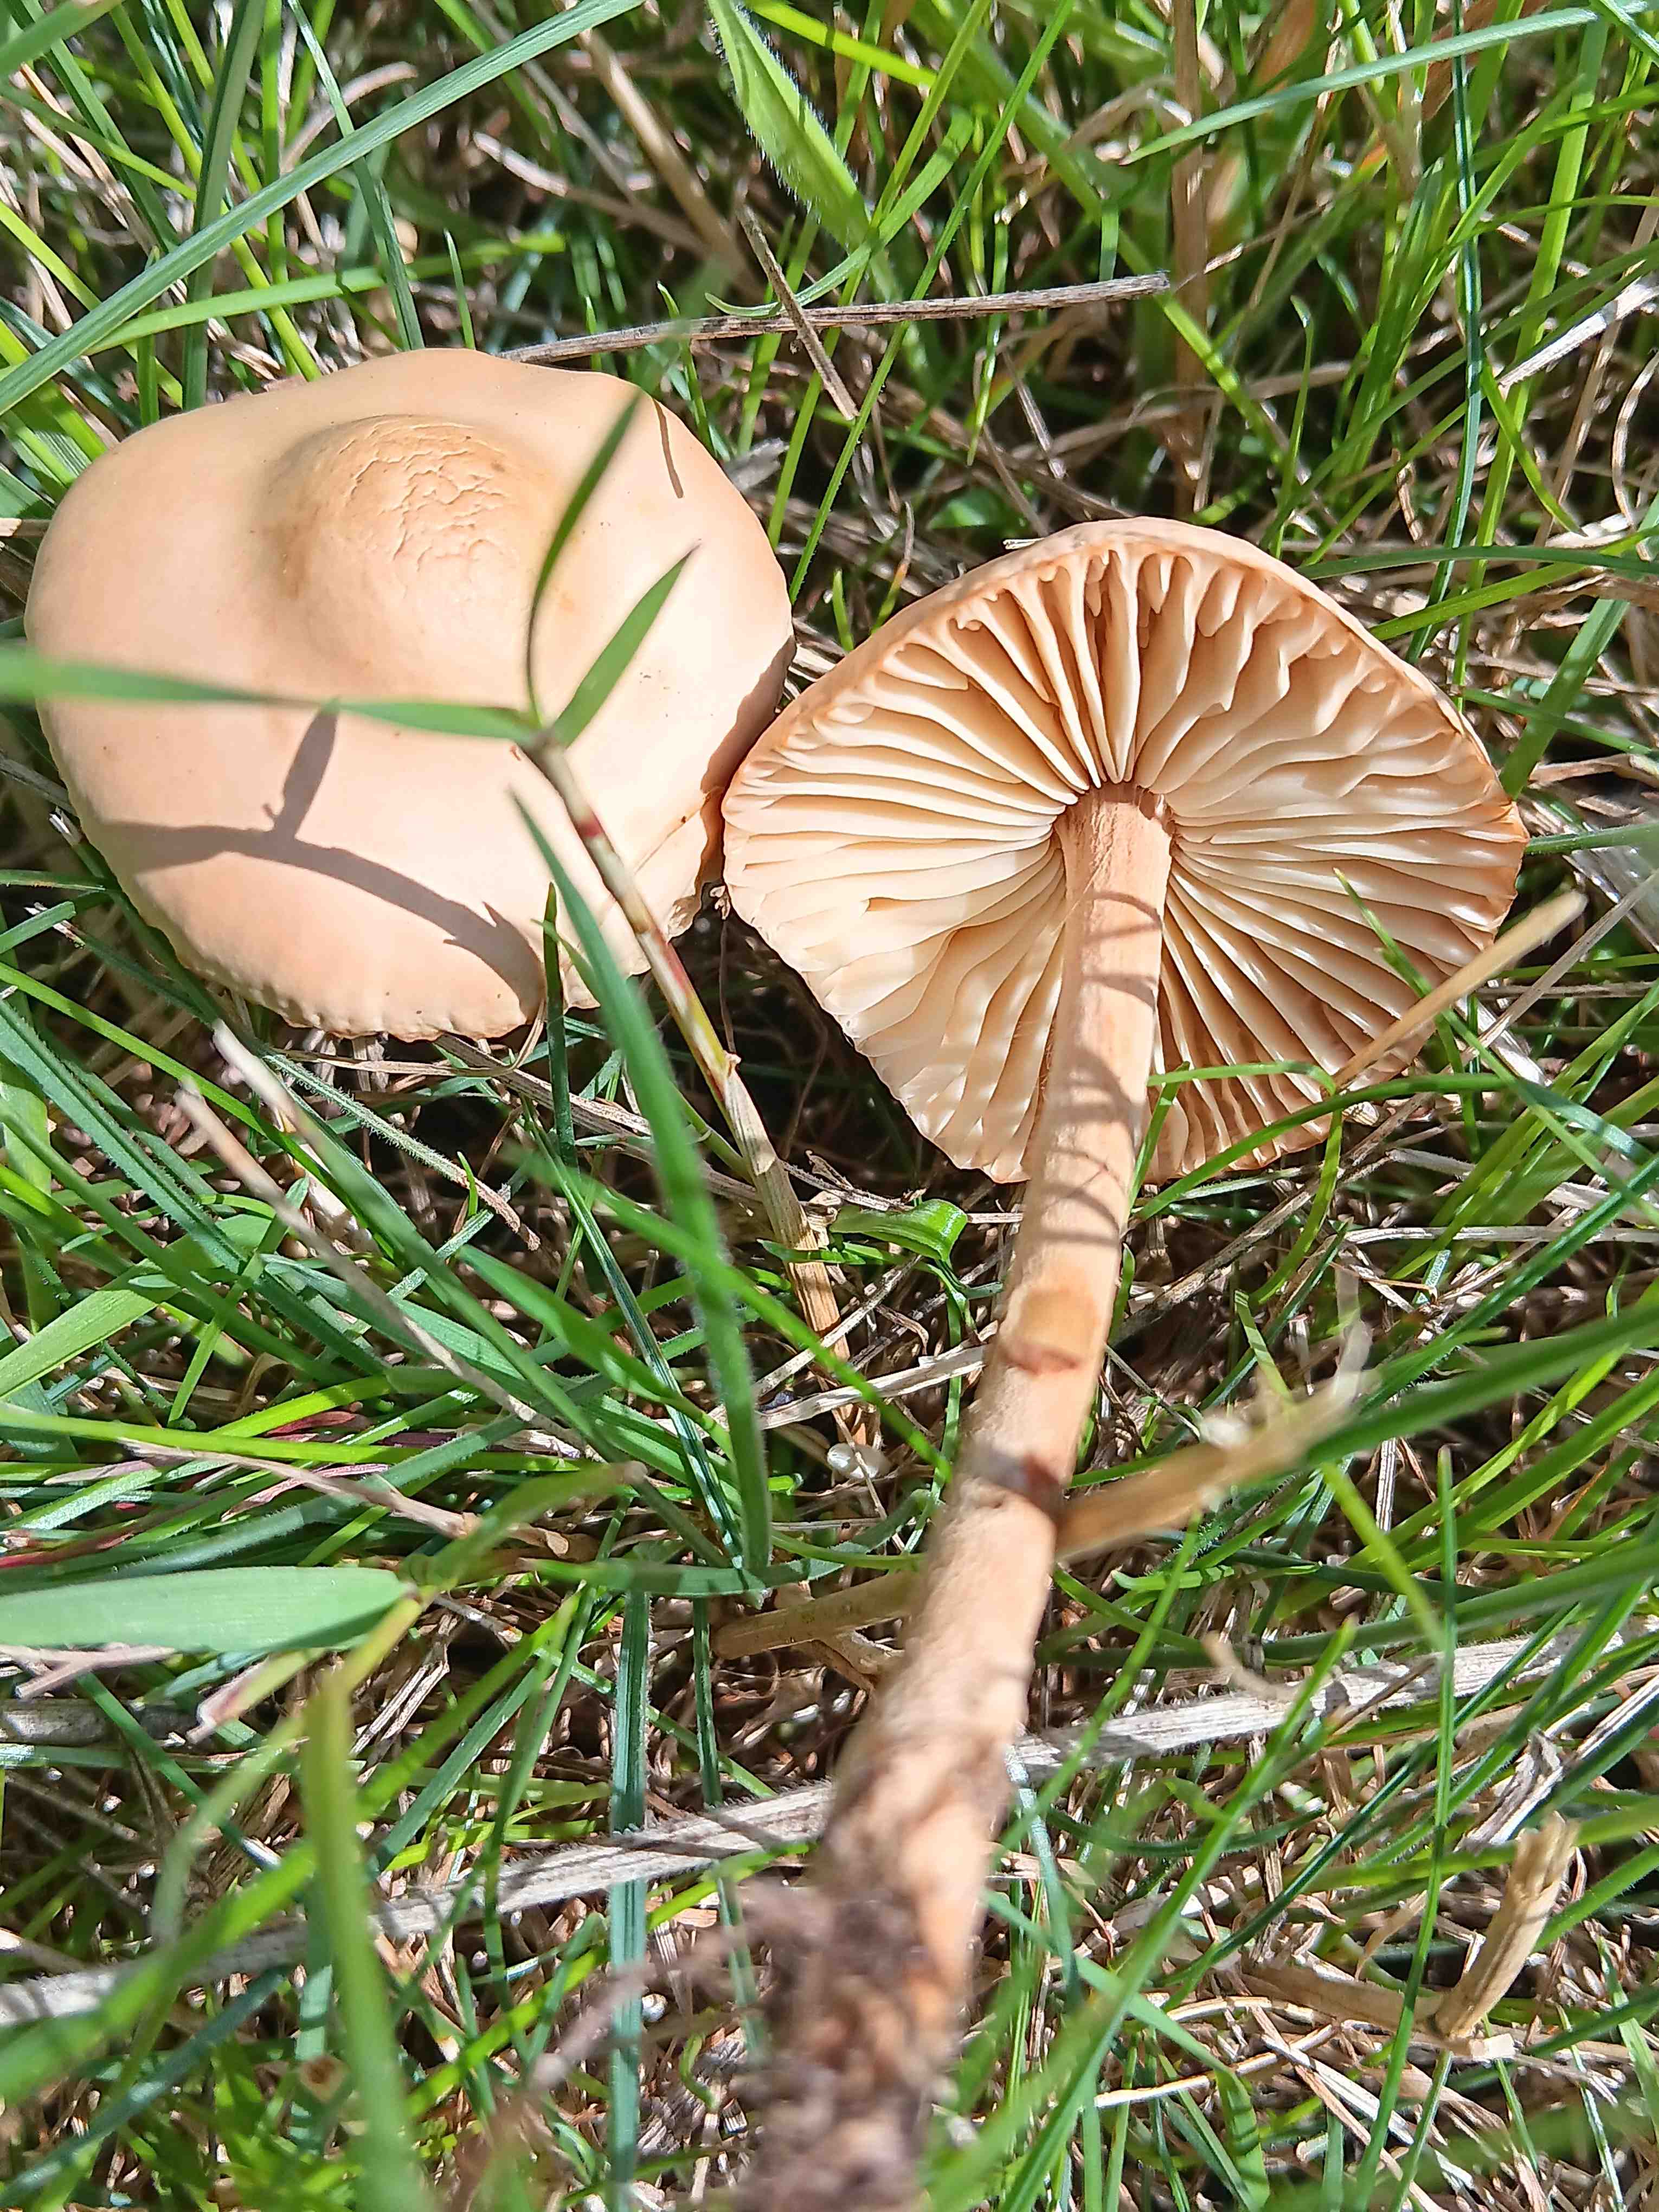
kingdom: Fungi
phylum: Basidiomycota
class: Agaricomycetes
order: Agaricales
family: Marasmiaceae
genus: Marasmius
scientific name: Marasmius oreades
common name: elledans-bruskhat
